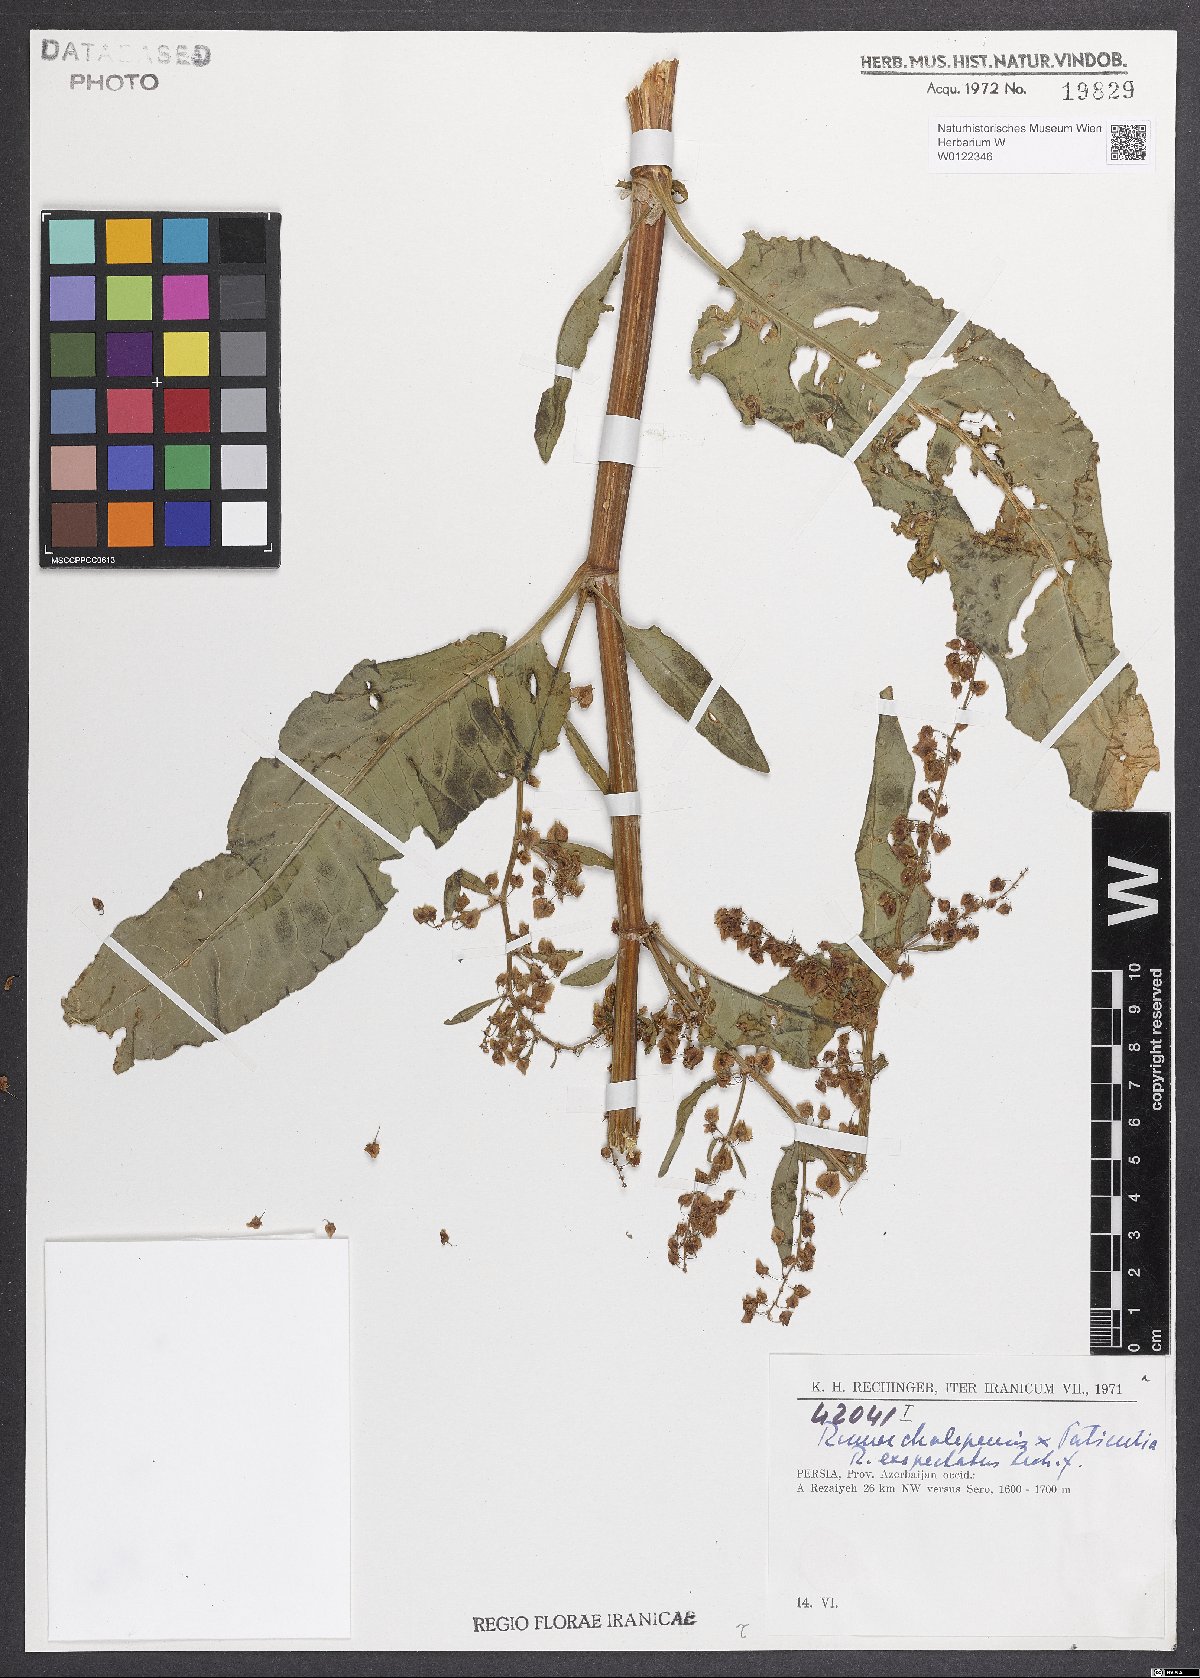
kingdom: Plantae
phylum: Tracheophyta
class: Magnoliopsida
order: Caryophyllales
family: Polygonaceae
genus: Rumex
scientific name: Rumex exspectatus
